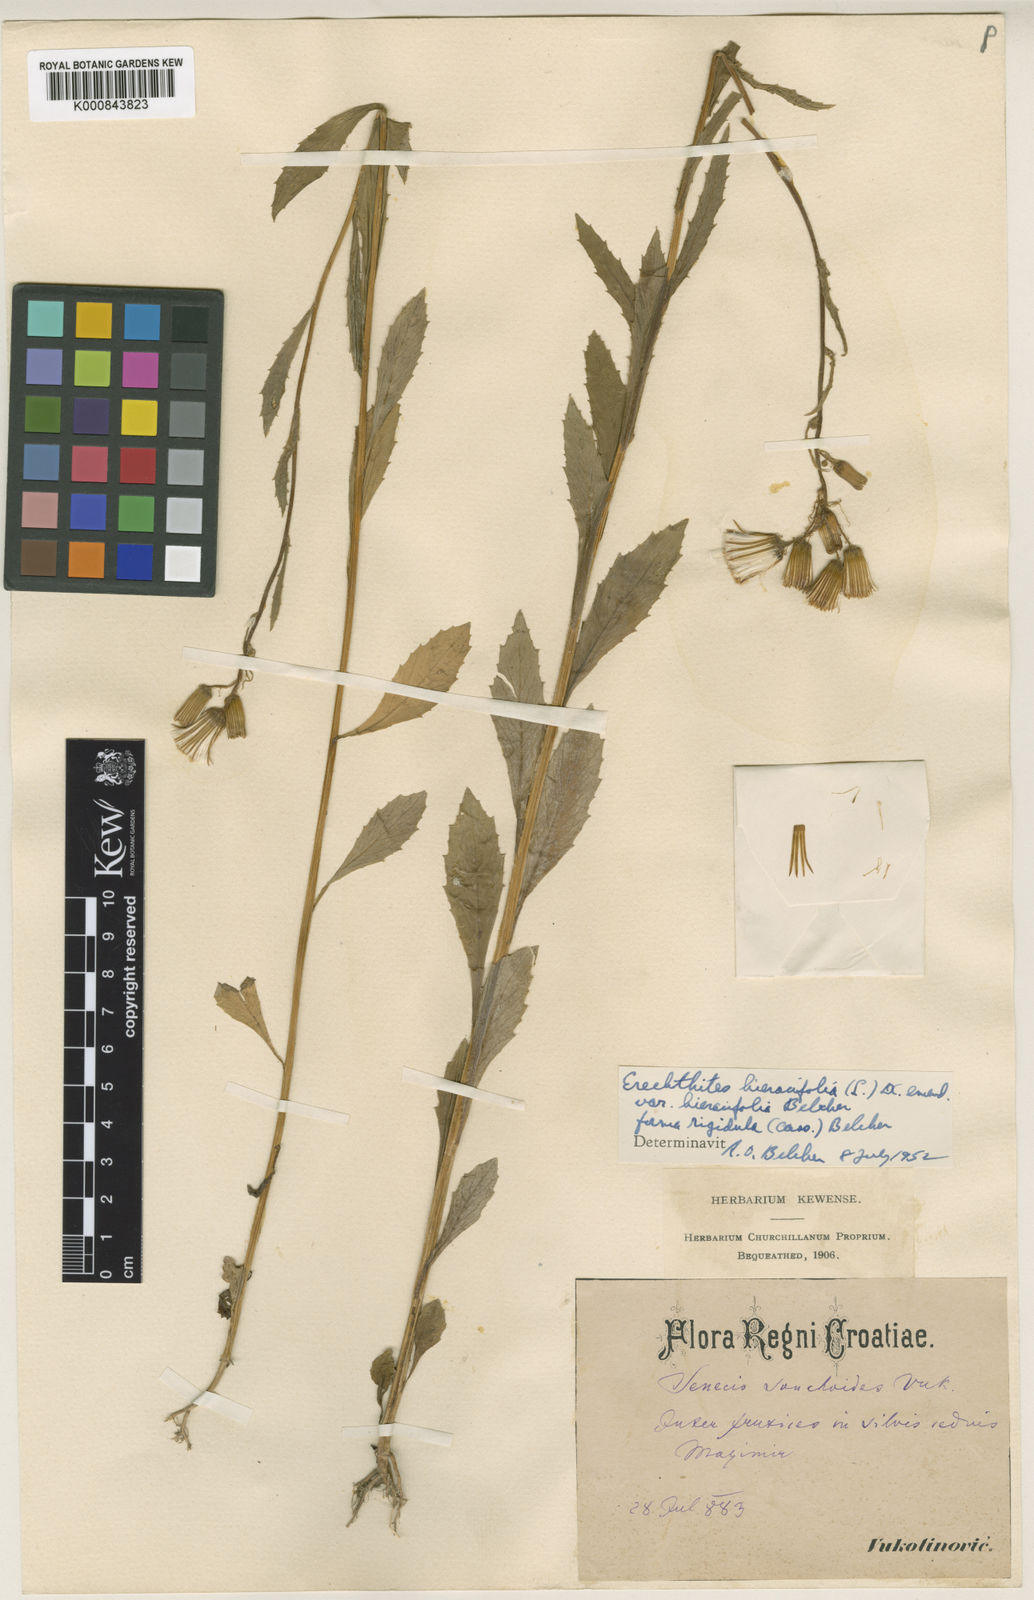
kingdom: Plantae
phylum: Tracheophyta
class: Magnoliopsida
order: Asterales
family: Asteraceae
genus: Erechtites
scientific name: Erechtites hieraciifolius
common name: American burnweed
